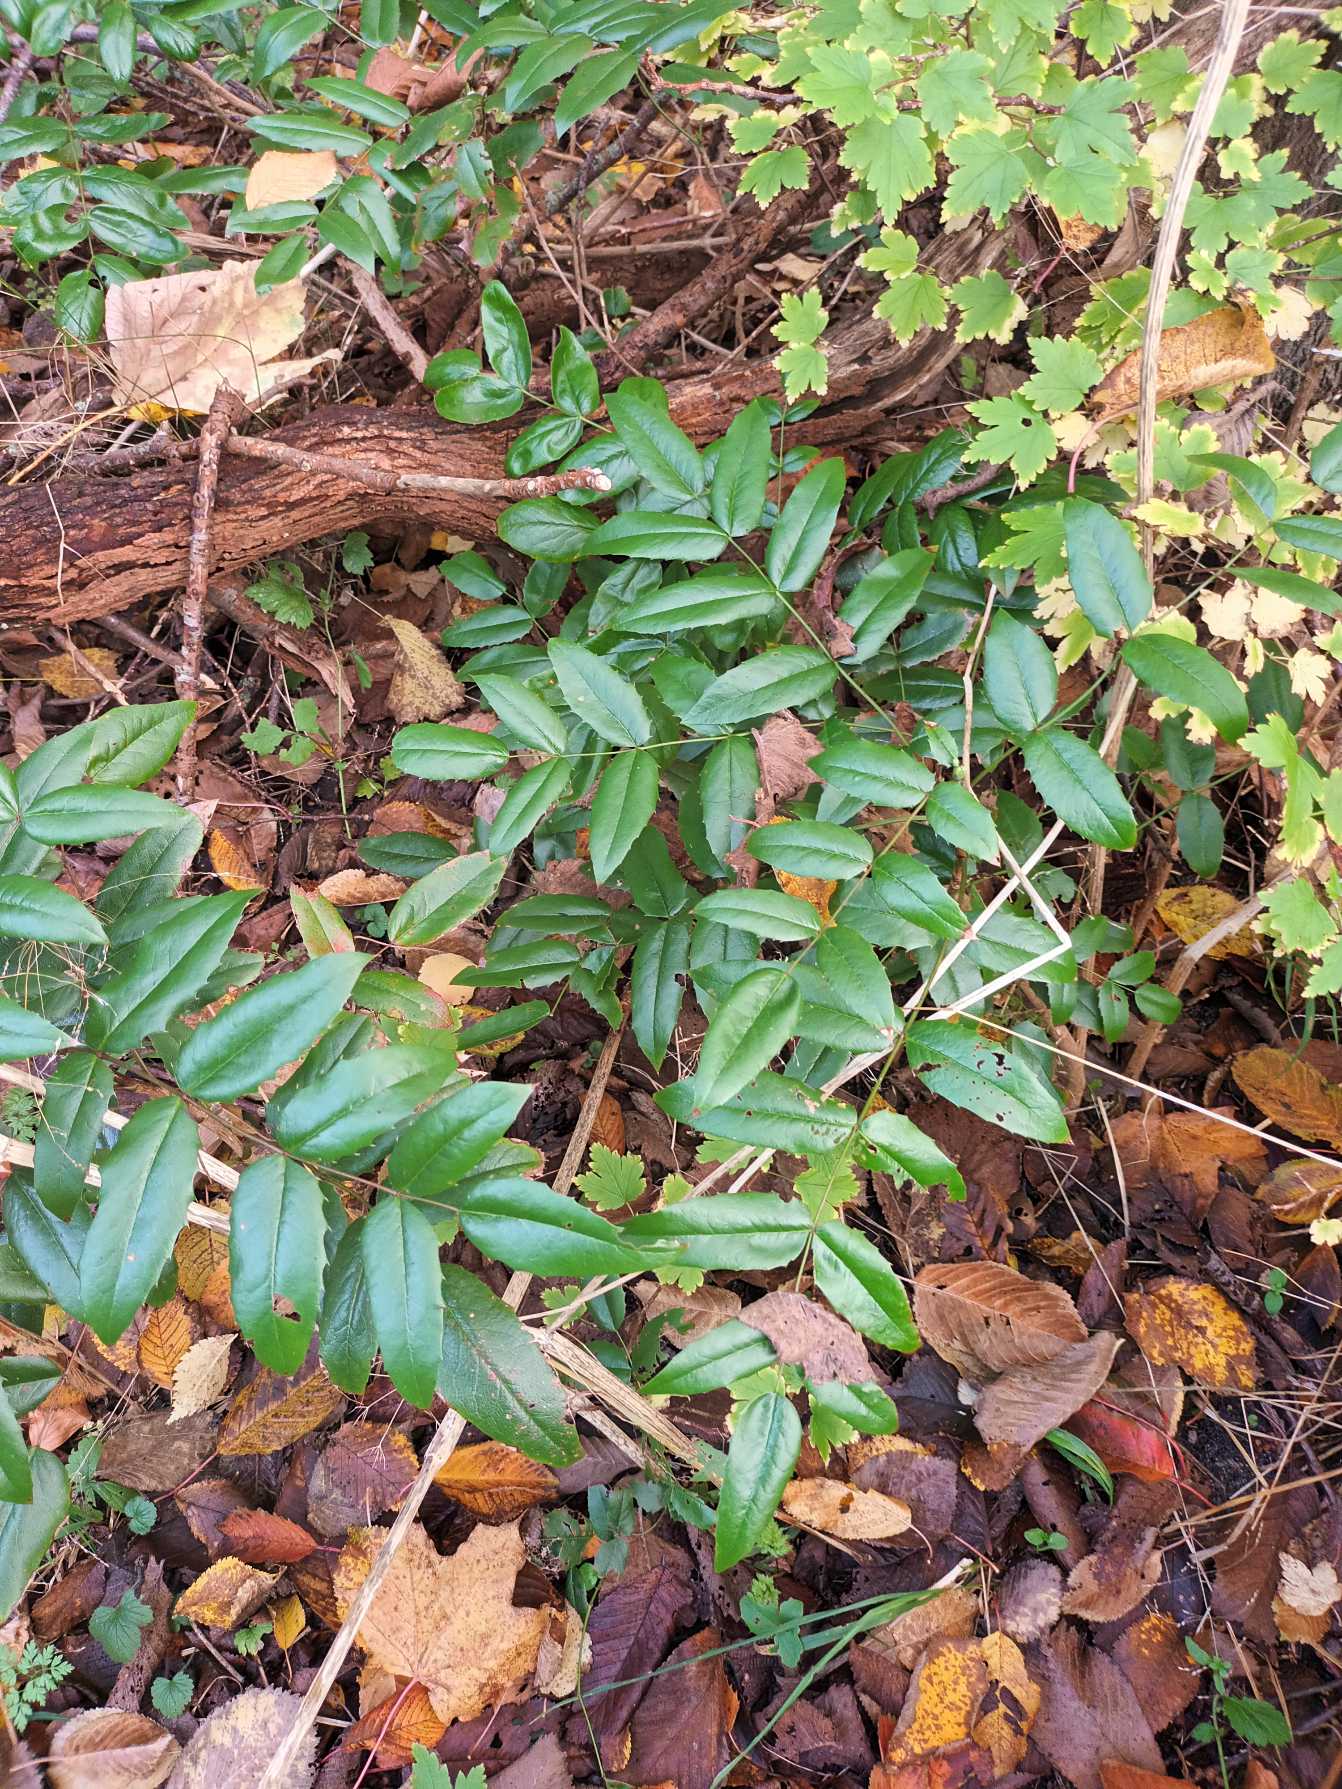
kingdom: Plantae
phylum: Tracheophyta
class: Magnoliopsida
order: Ranunculales
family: Berberidaceae
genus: Mahonia
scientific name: Mahonia aquifolium
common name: Almindelig mahonie
